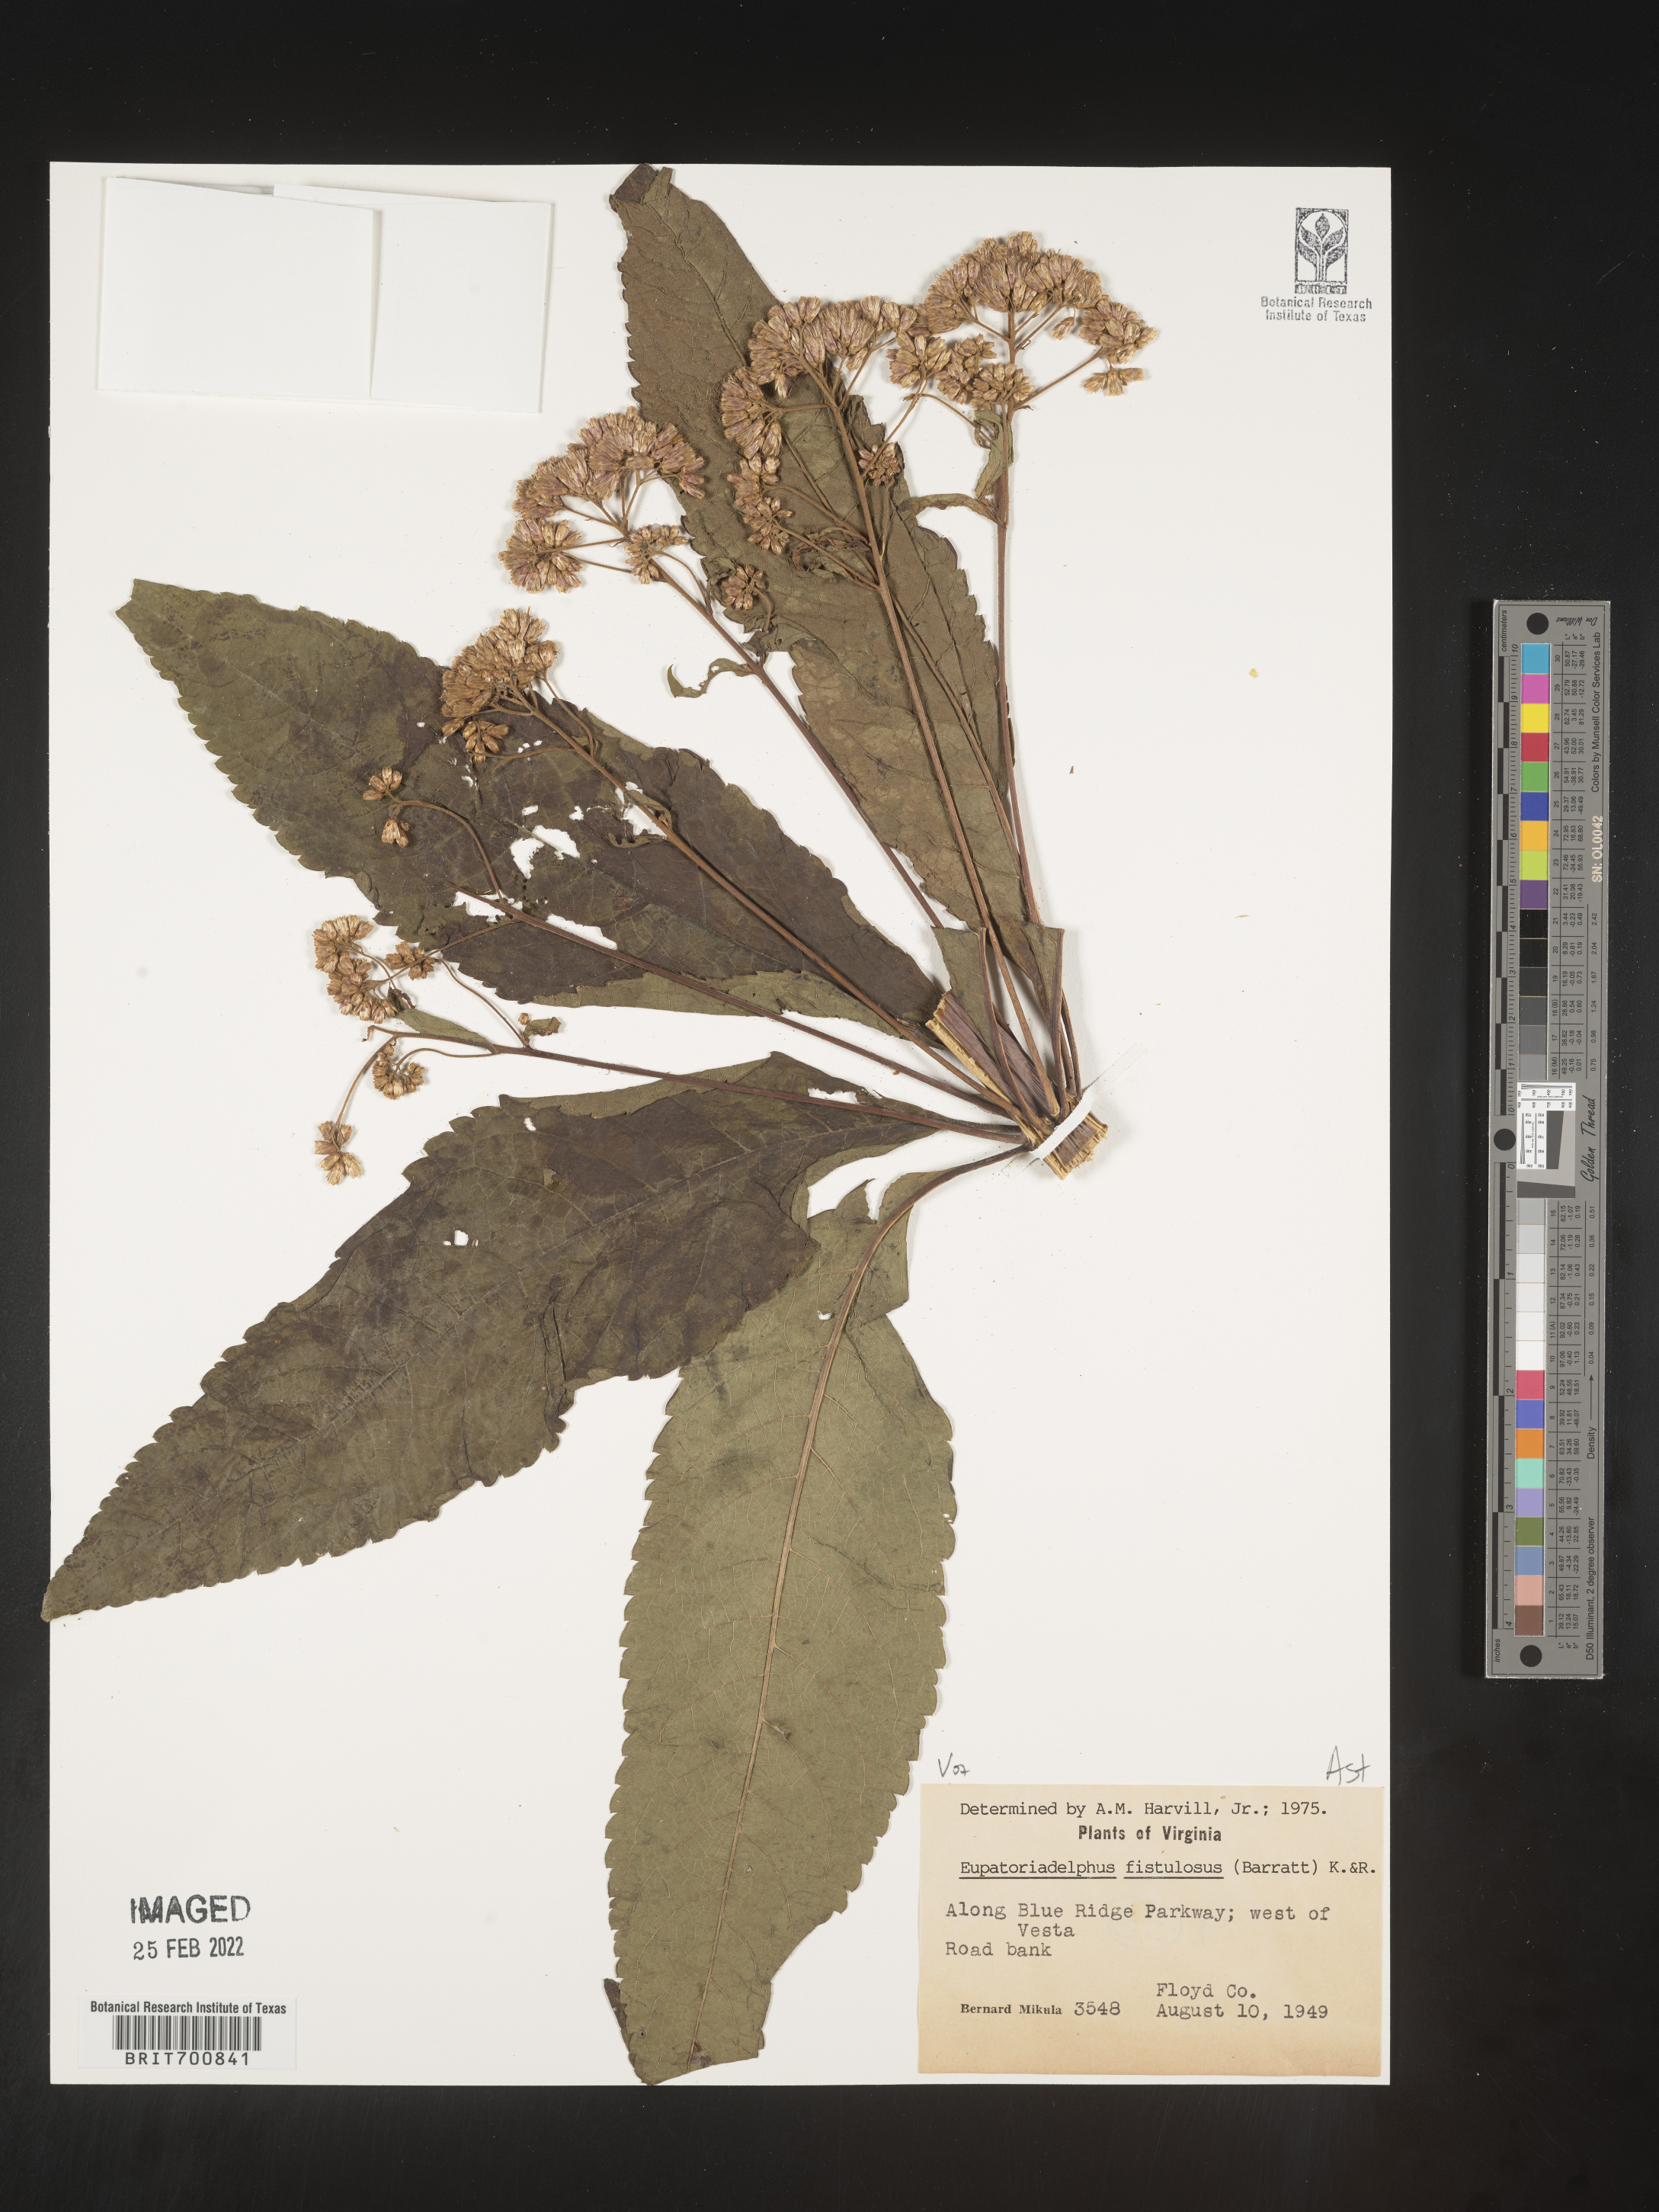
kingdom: Plantae
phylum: Tracheophyta
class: Magnoliopsida
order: Asterales
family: Asteraceae
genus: Eutrochium
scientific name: Eutrochium fistulosum
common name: Trumpetweed
